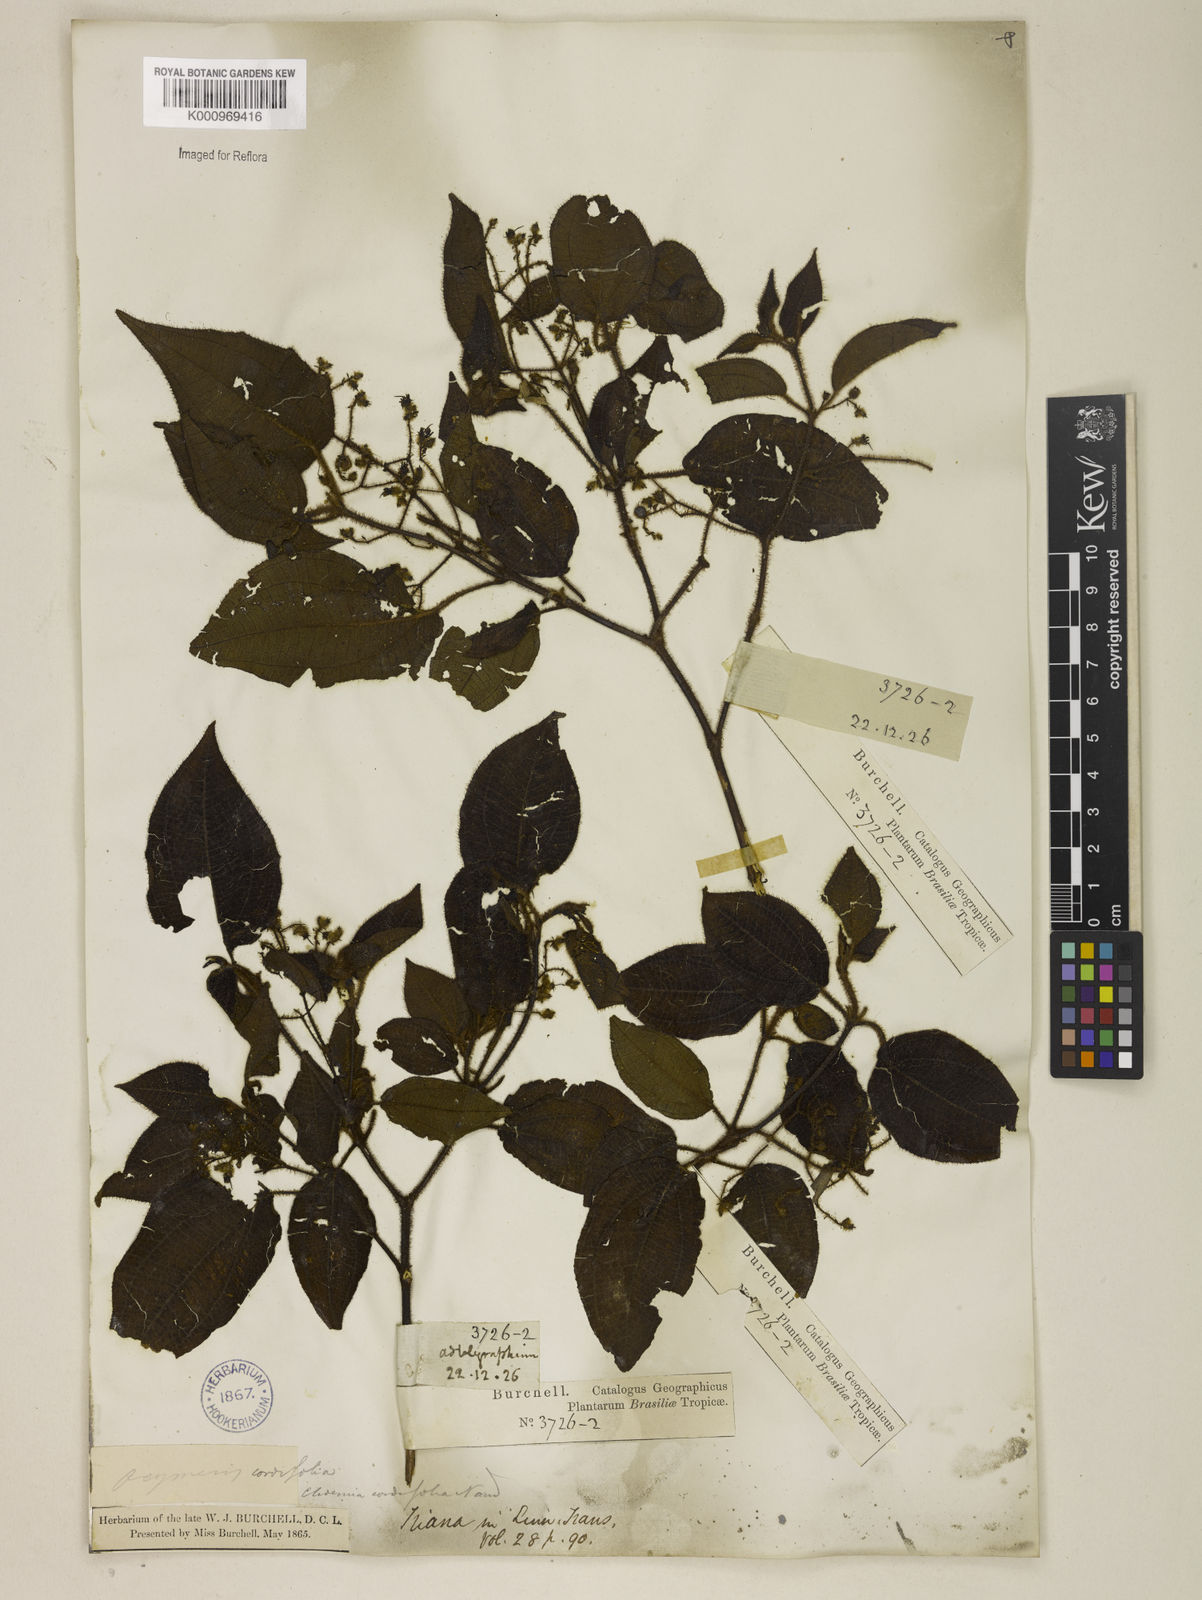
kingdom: Plantae
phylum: Tracheophyta
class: Magnoliopsida
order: Myrtales
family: Melastomataceae
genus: Miconia
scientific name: Miconia leacordifolia
